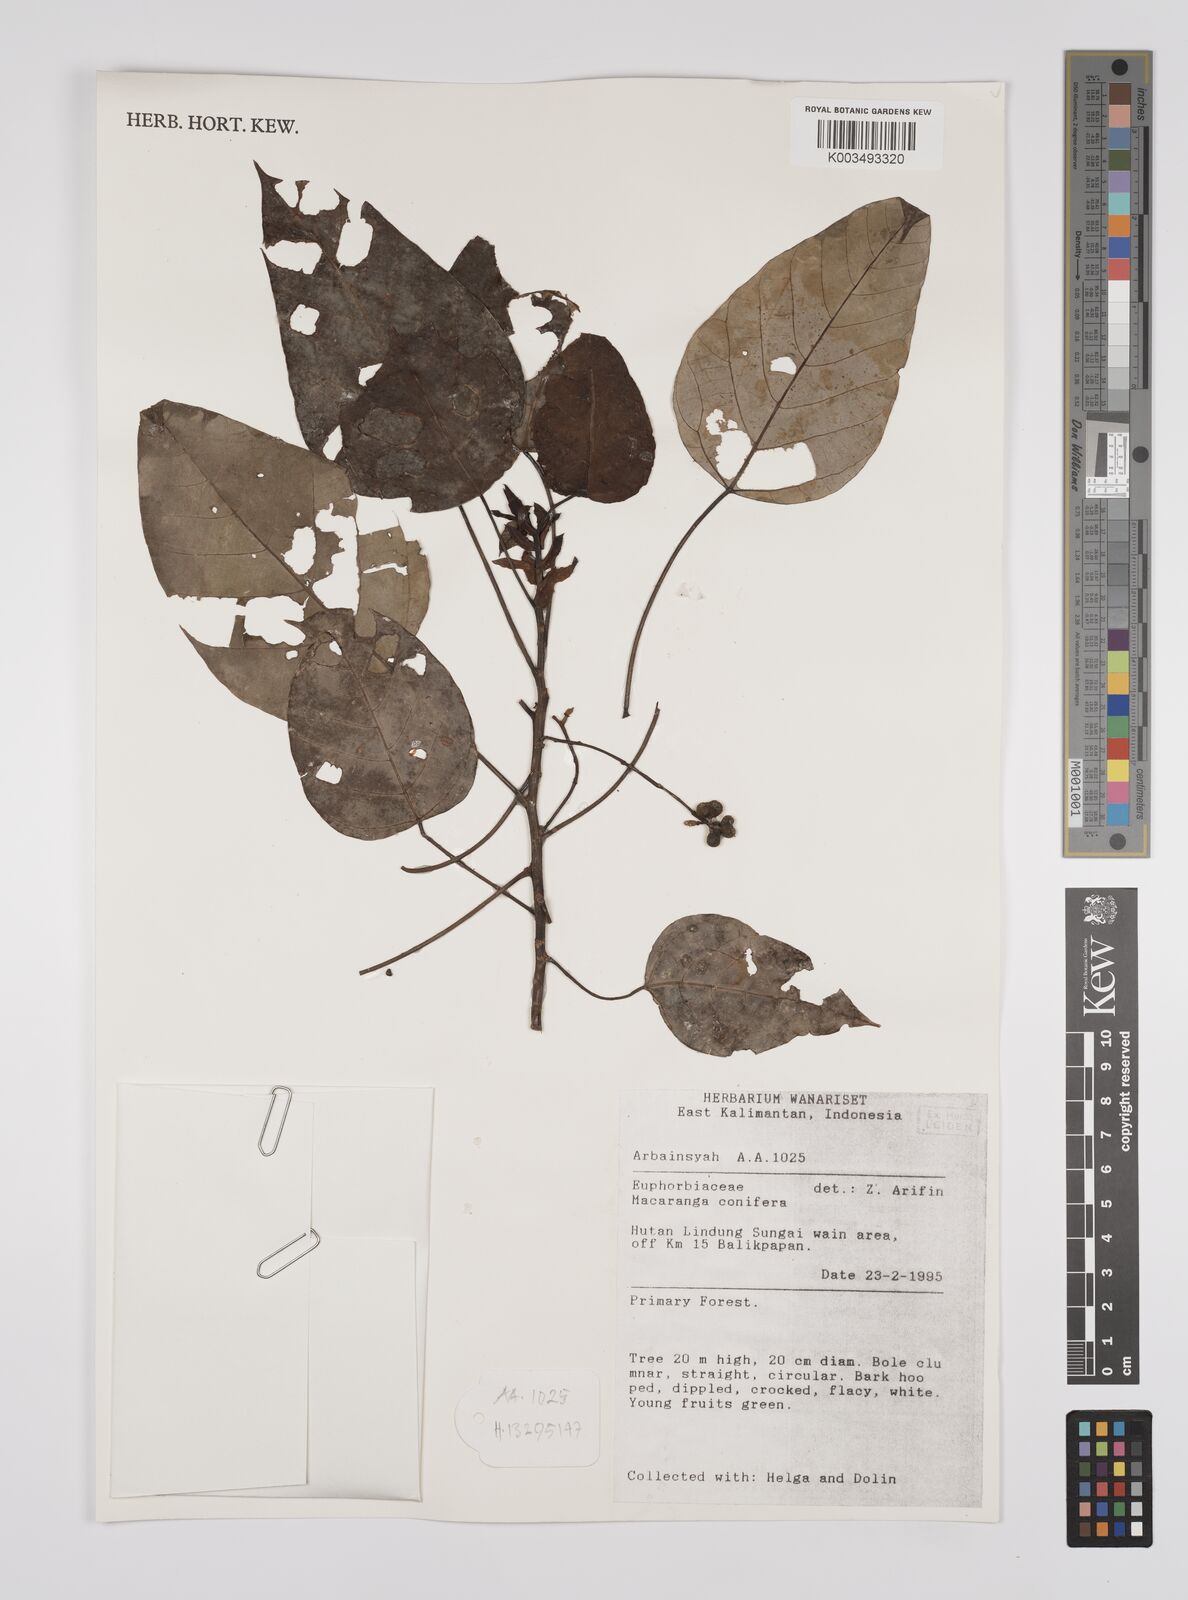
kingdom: Plantae
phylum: Tracheophyta
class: Magnoliopsida
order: Malpighiales
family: Euphorbiaceae
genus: Macaranga
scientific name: Macaranga conifera
